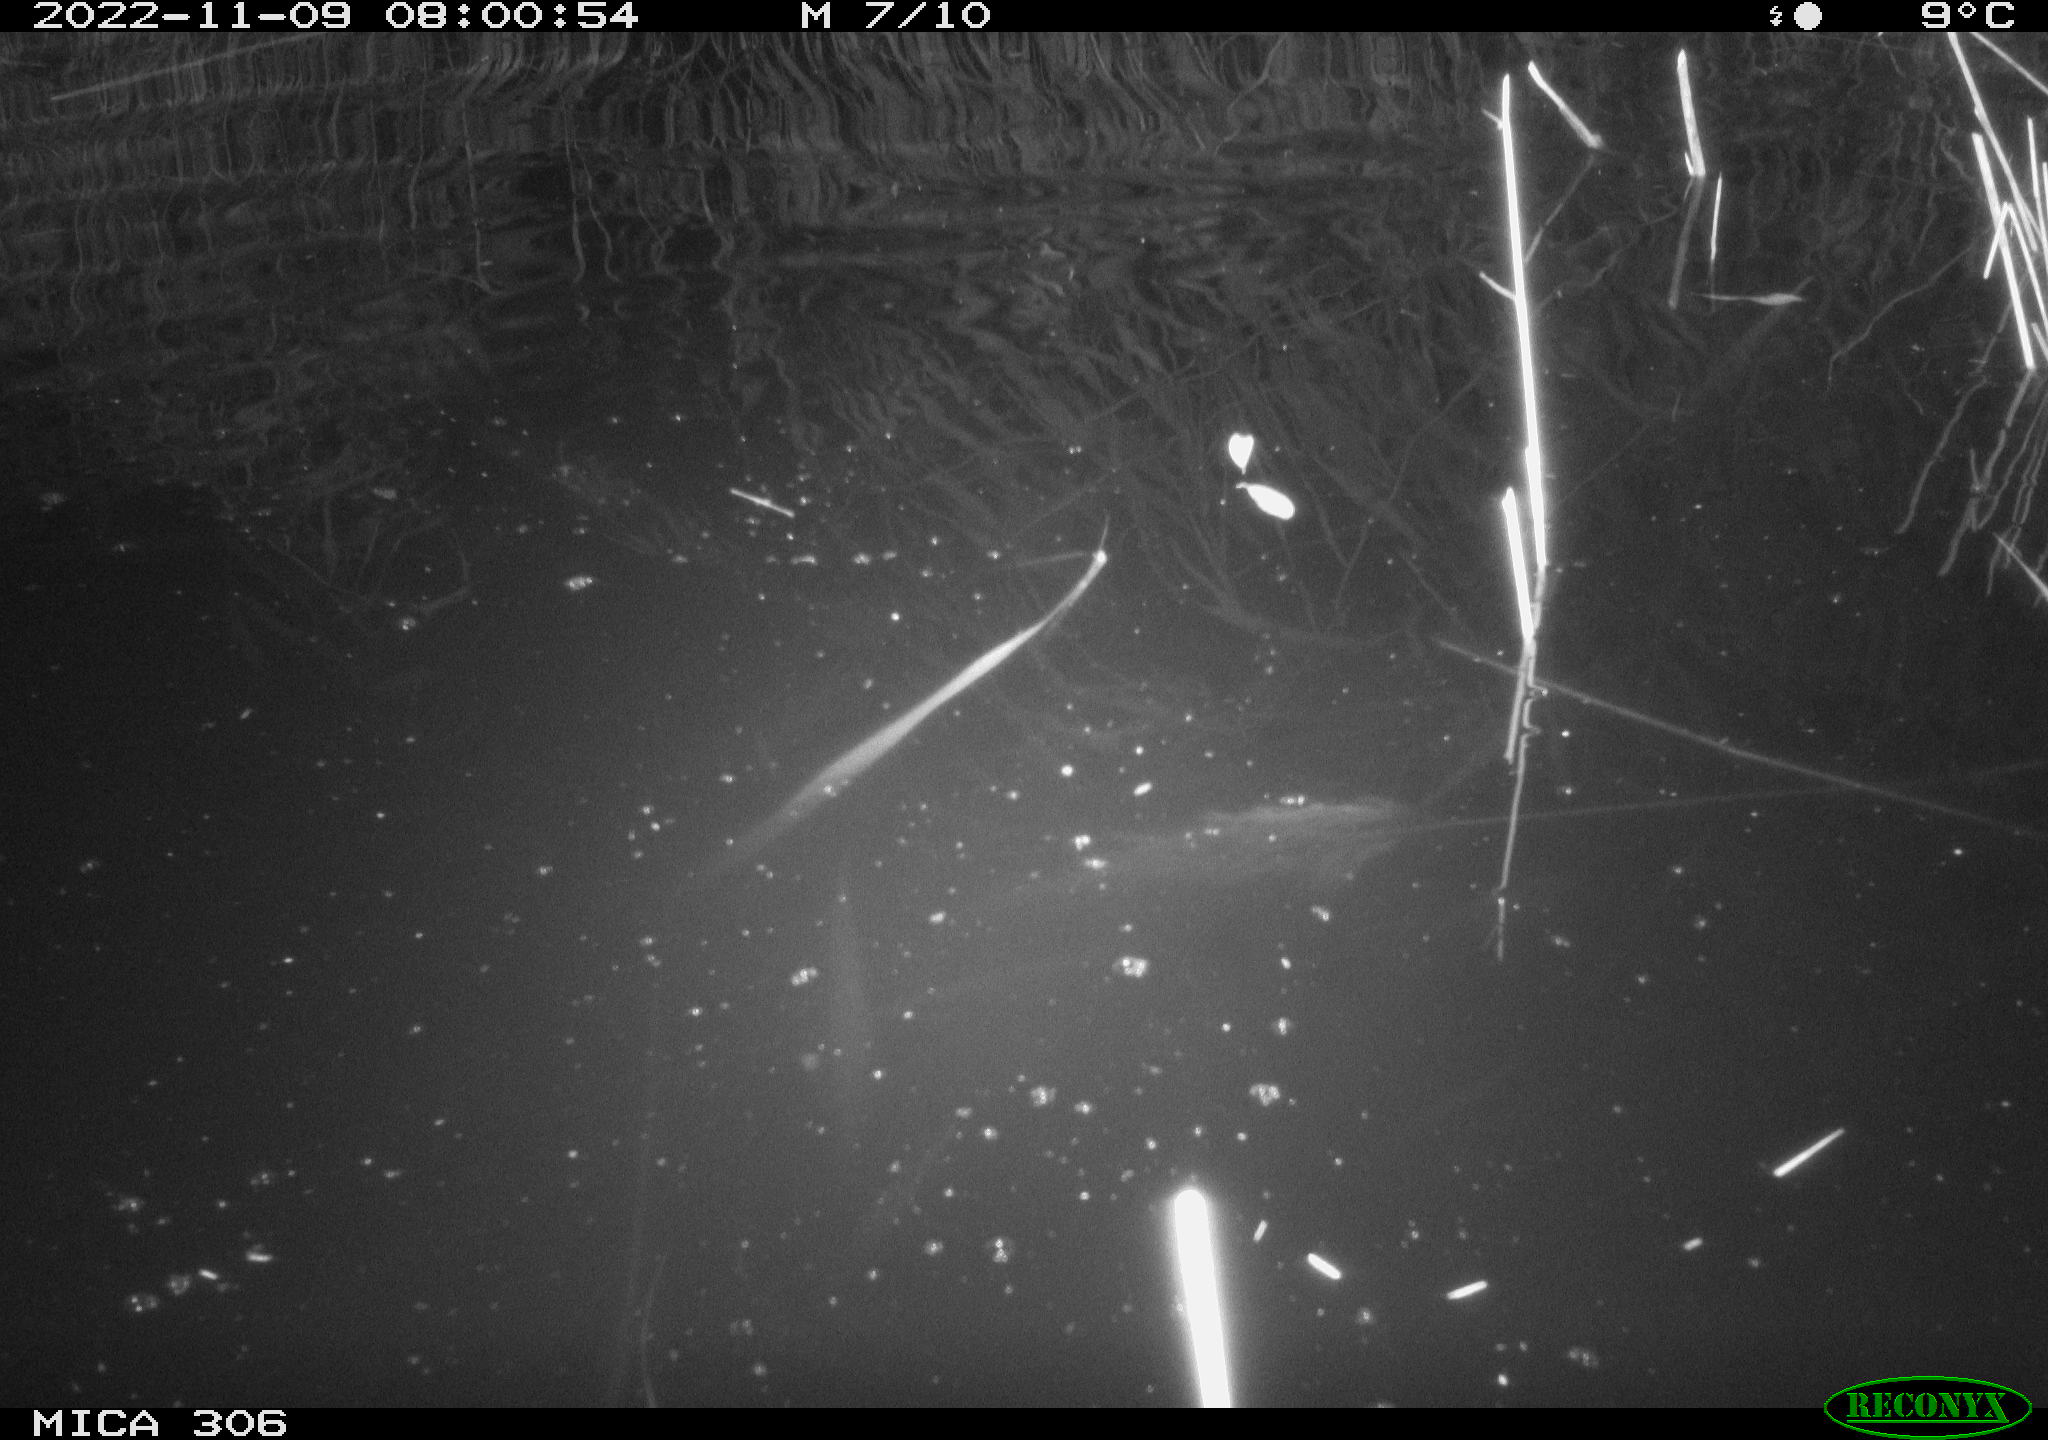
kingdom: Animalia
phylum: Chordata
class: Mammalia
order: Rodentia
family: Muridae
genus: Rattus
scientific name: Rattus norvegicus
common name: Brown rat
